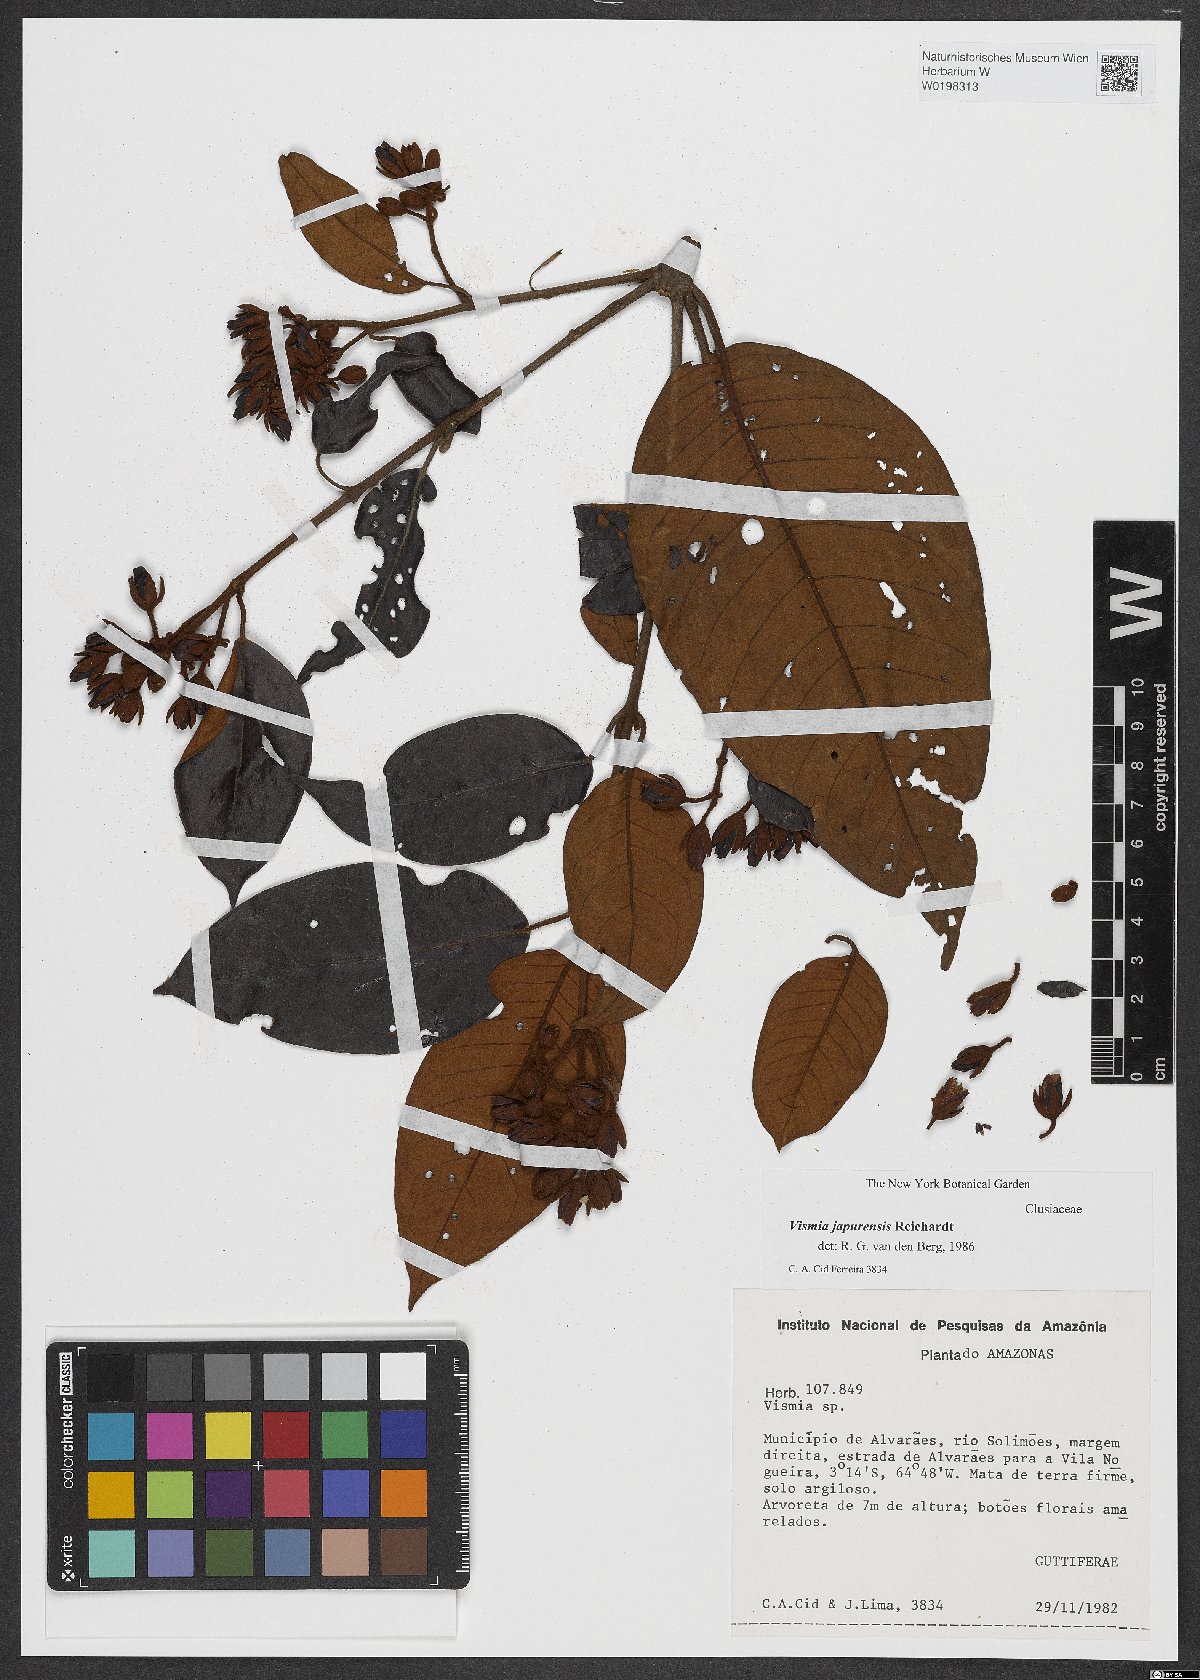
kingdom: Plantae
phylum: Tracheophyta
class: Magnoliopsida
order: Malpighiales
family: Hypericaceae
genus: Vismia
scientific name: Vismia japurensis
